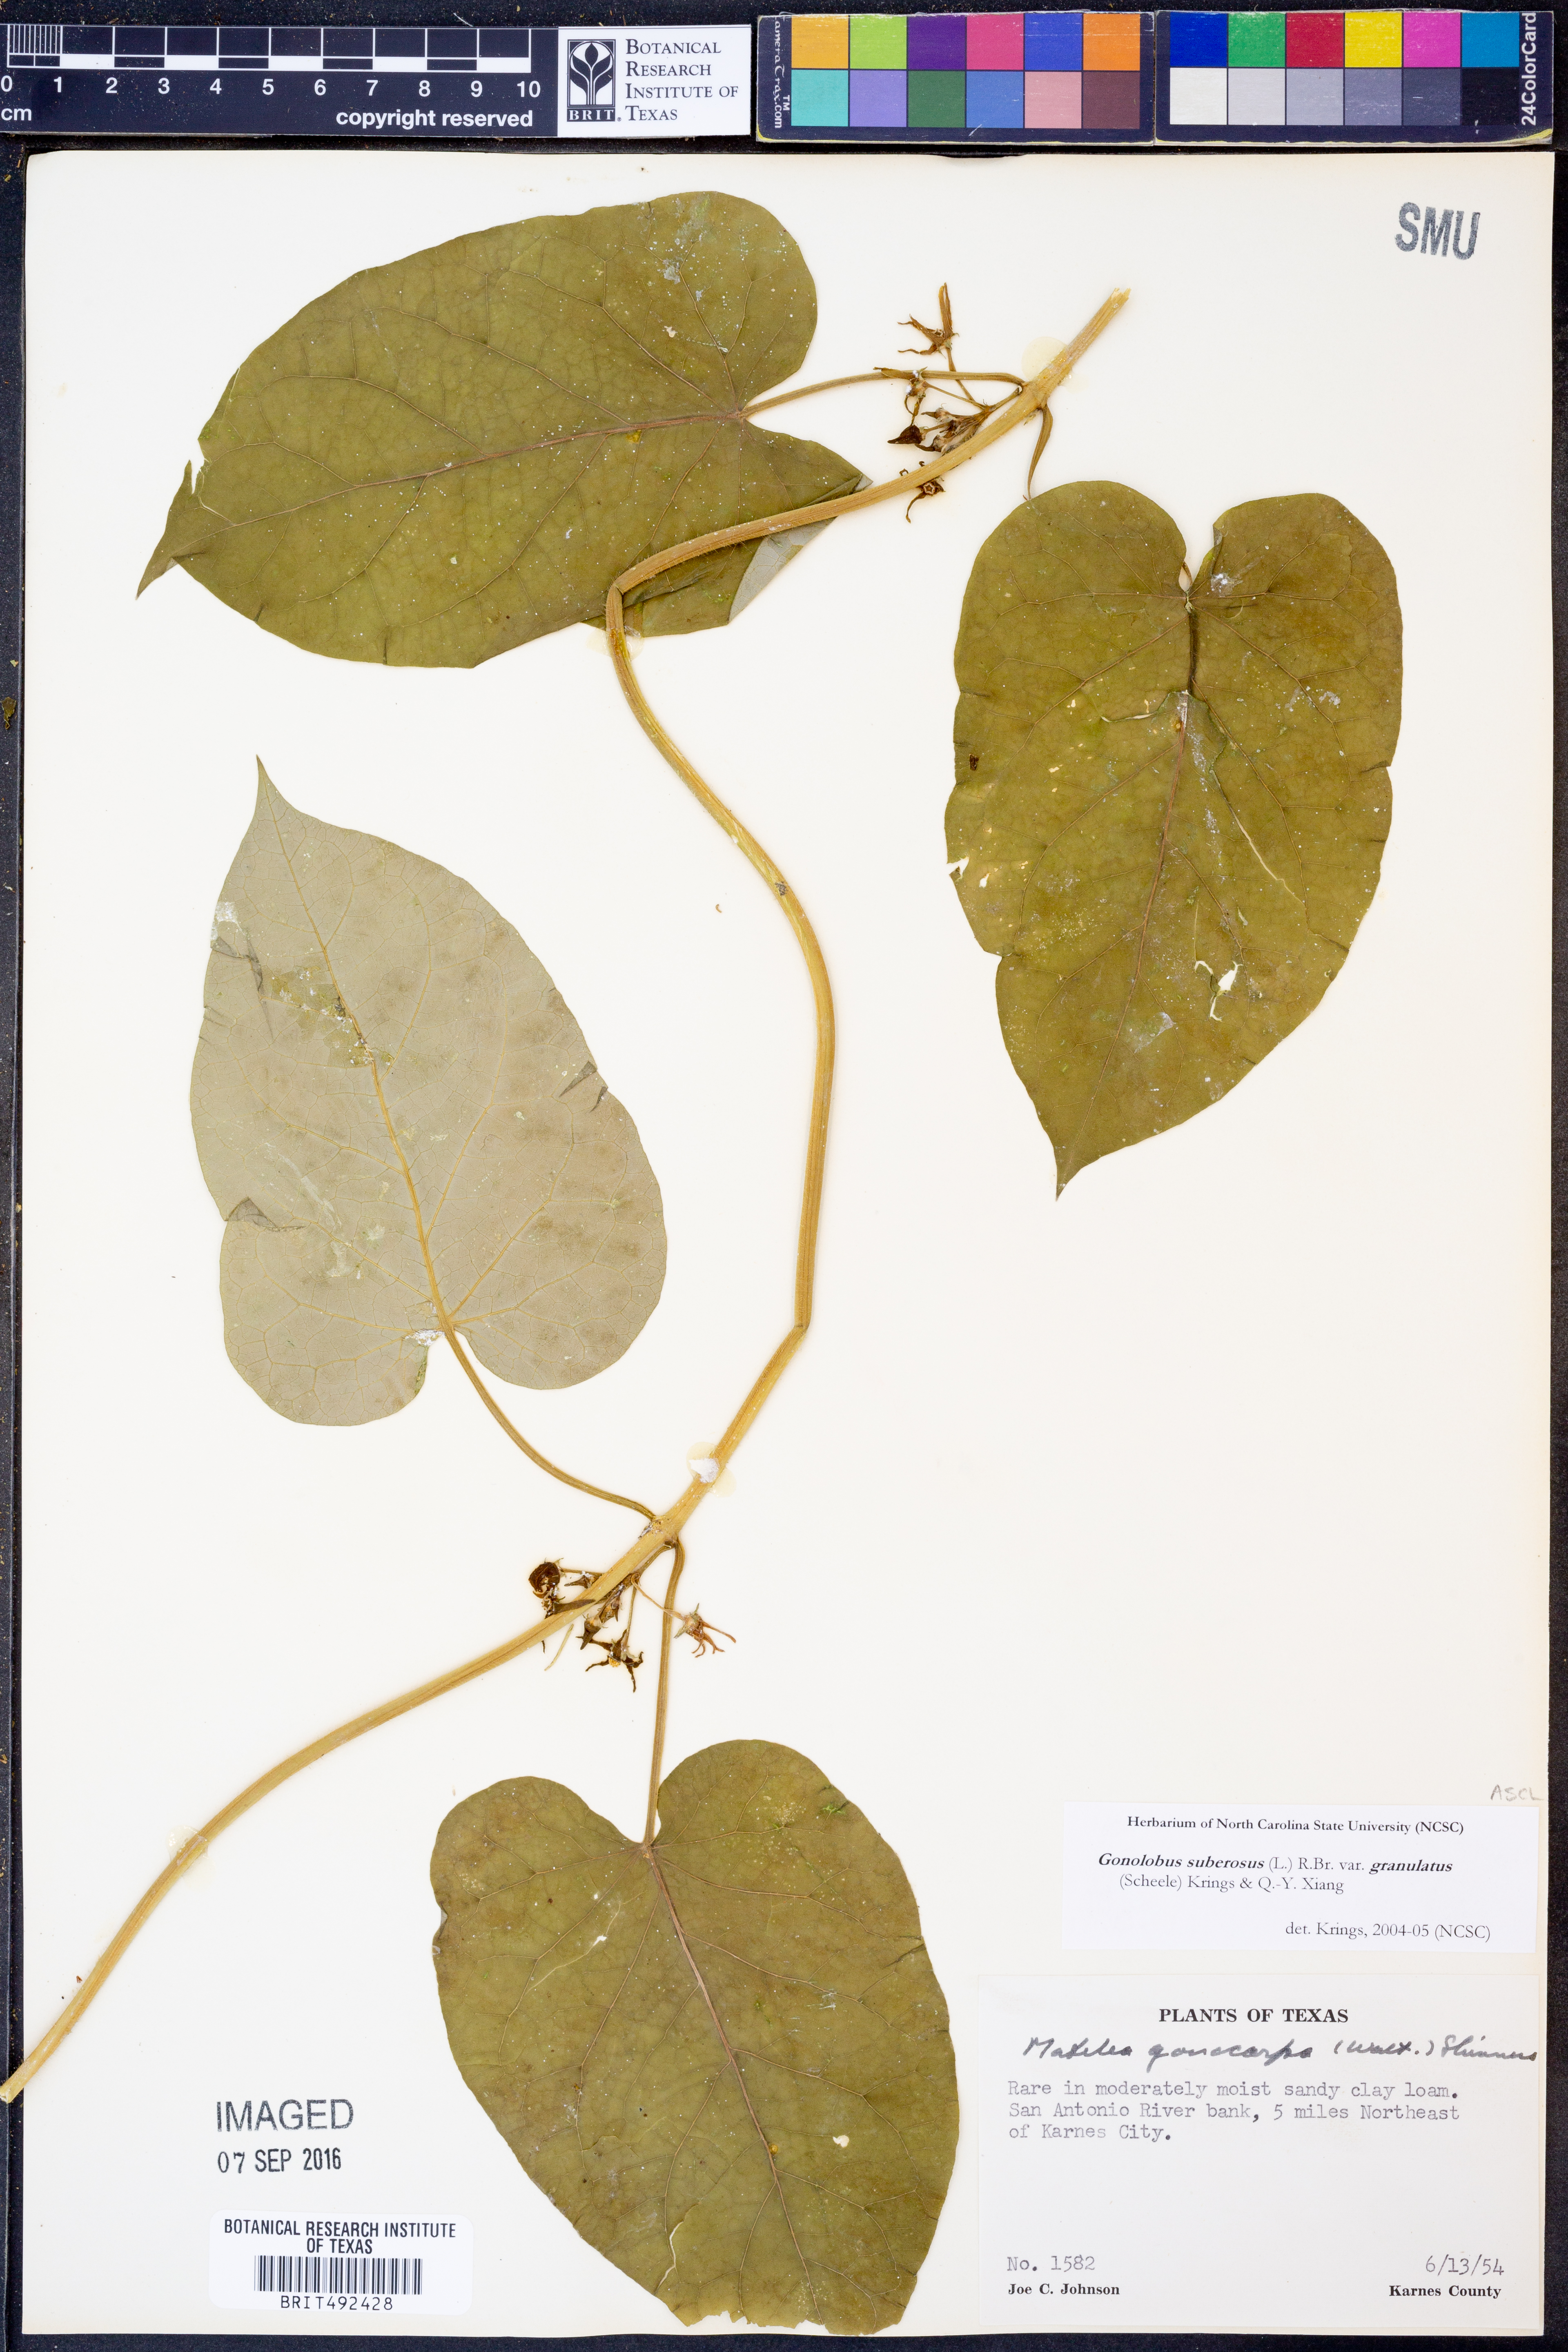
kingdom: Plantae
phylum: Tracheophyta
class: Magnoliopsida
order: Gentianales
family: Apocynaceae
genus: Gonolobus
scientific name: Gonolobus suberosus
